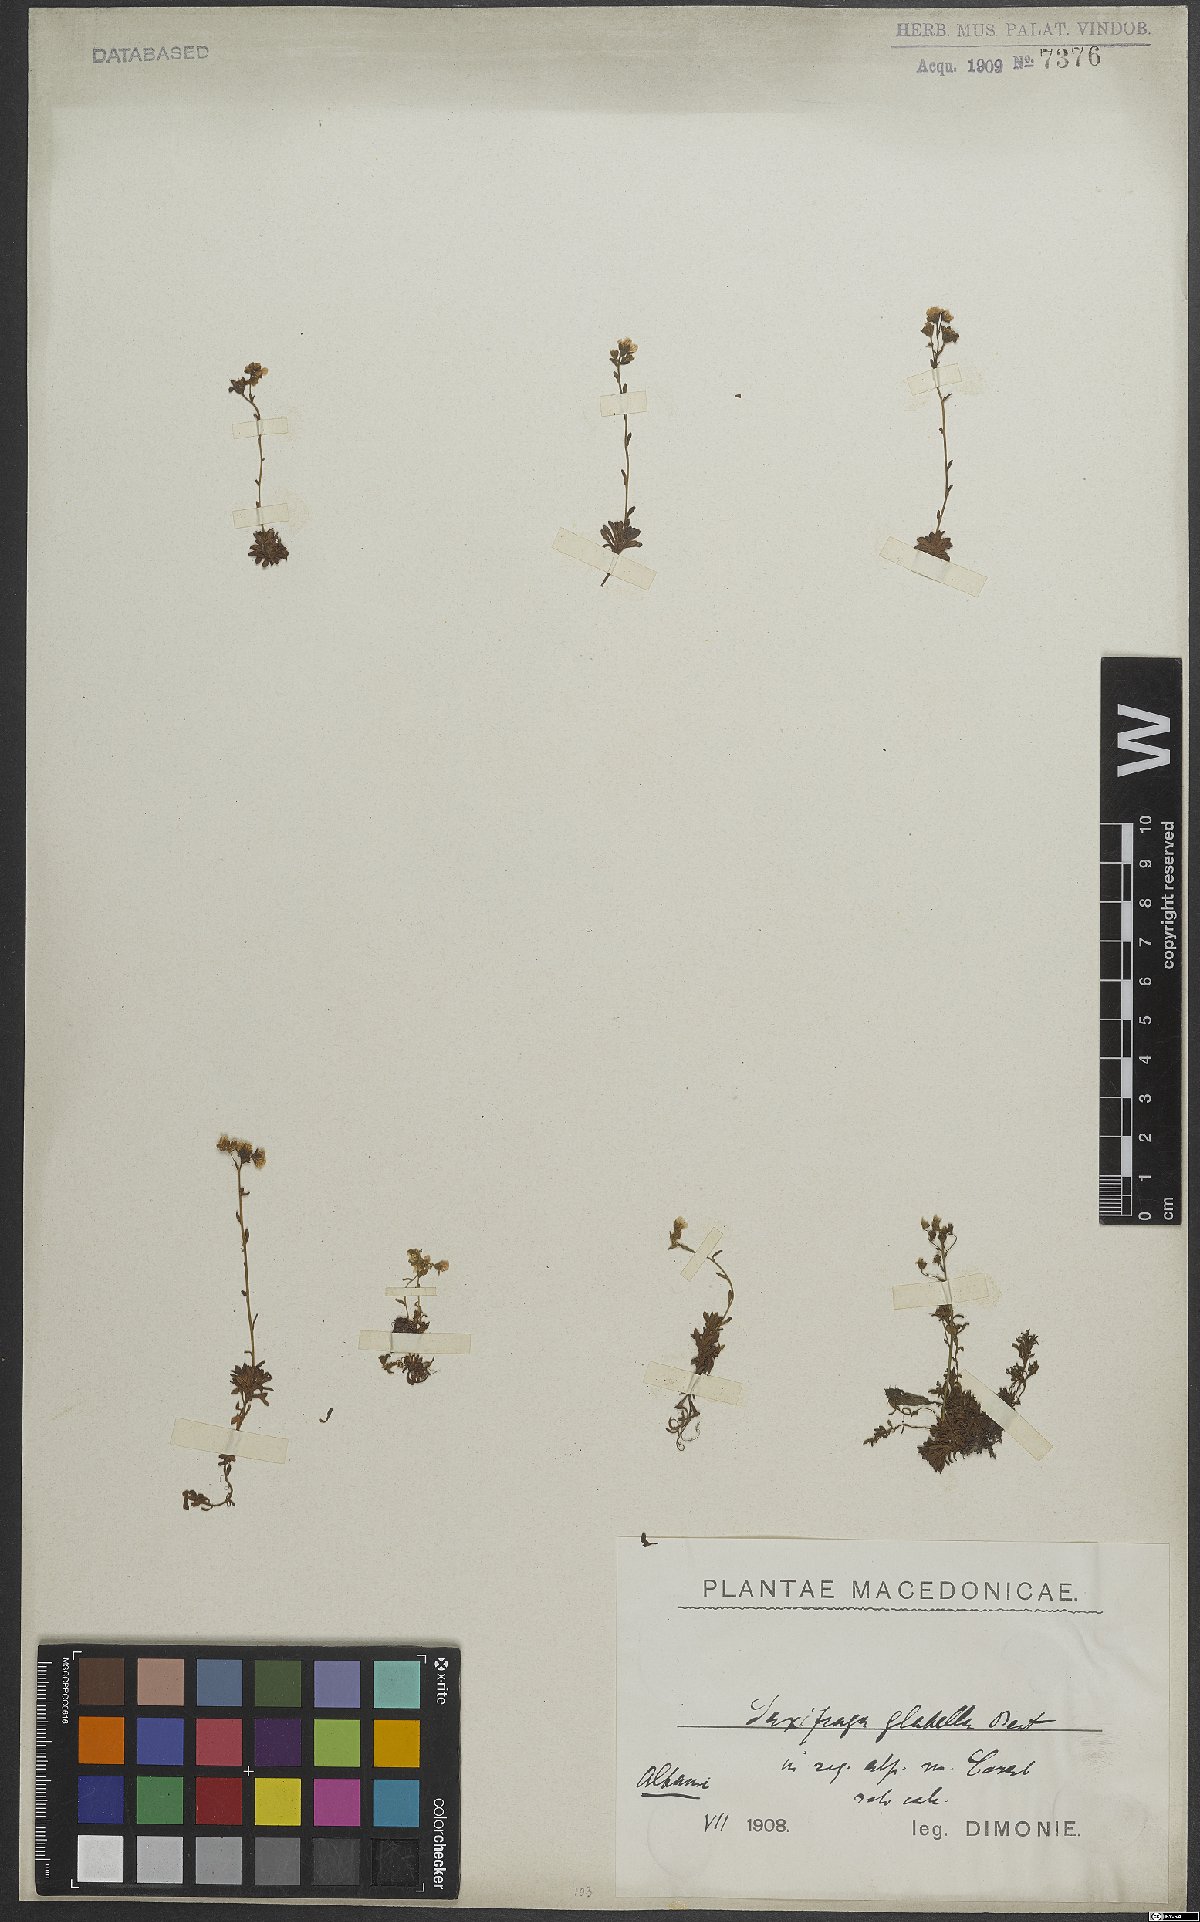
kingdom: Plantae
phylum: Tracheophyta
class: Magnoliopsida
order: Saxifragales
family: Saxifragaceae
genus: Saxifraga
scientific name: Saxifraga glabella
